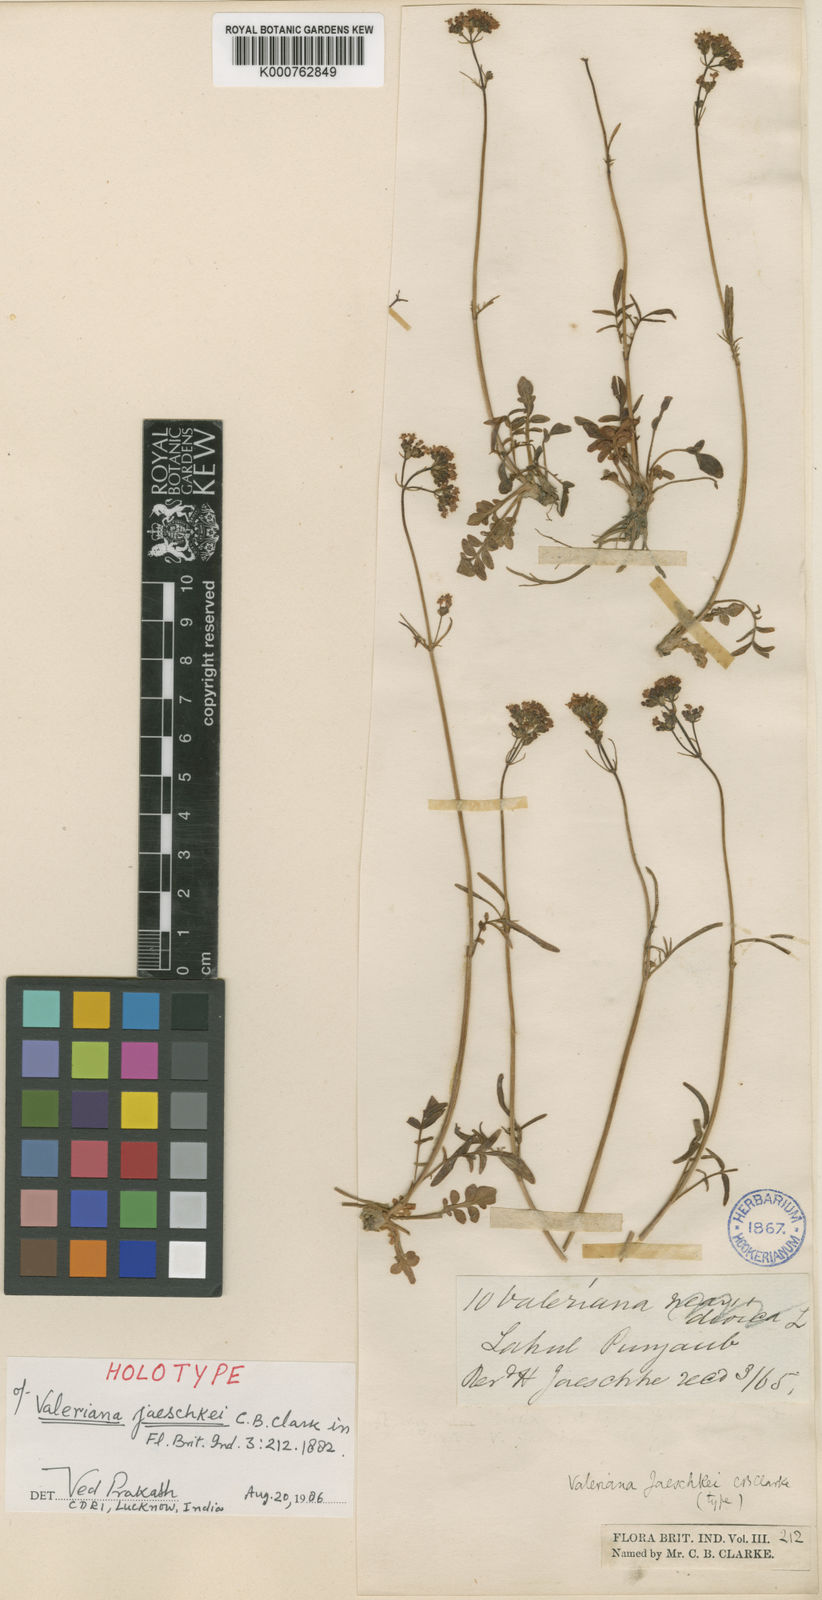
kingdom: Plantae
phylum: Tracheophyta
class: Magnoliopsida
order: Dipsacales
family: Caprifoliaceae
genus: Valeriana
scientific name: Valeriana jaeschkei
